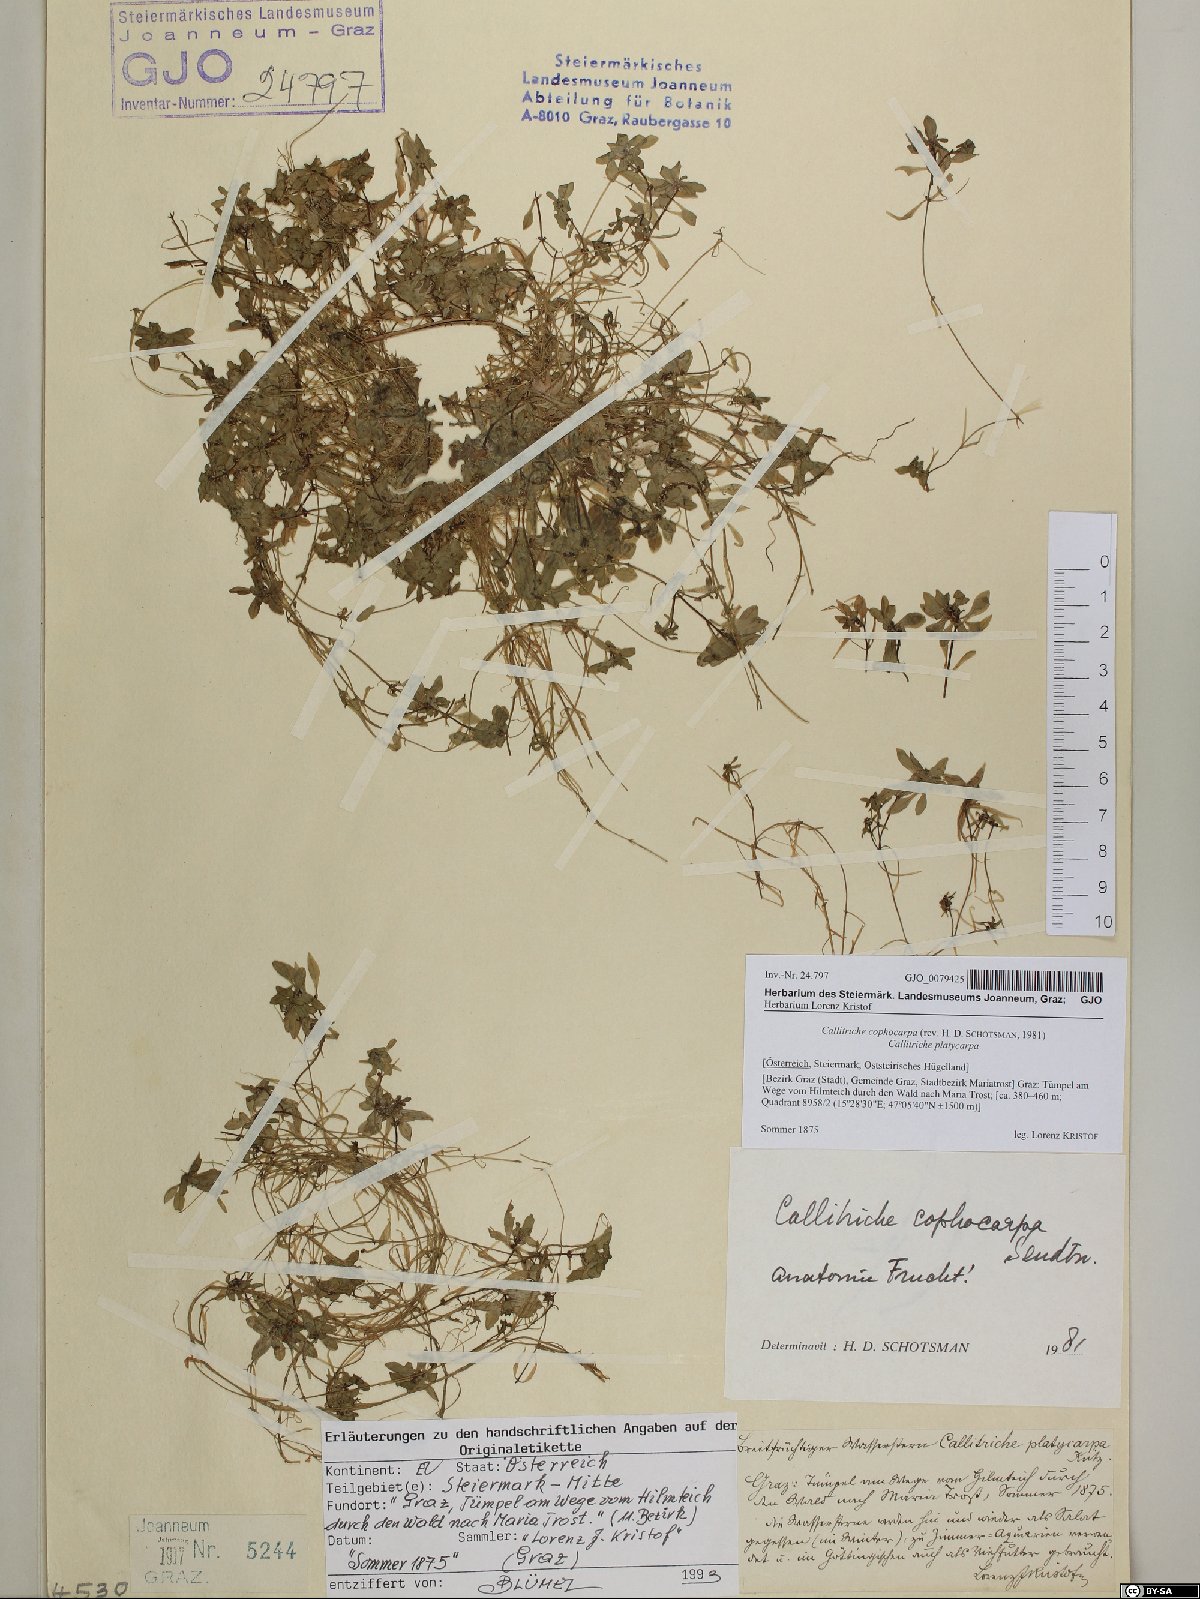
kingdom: Plantae
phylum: Tracheophyta
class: Magnoliopsida
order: Lamiales
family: Plantaginaceae
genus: Callitriche
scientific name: Callitriche cophocarpa
